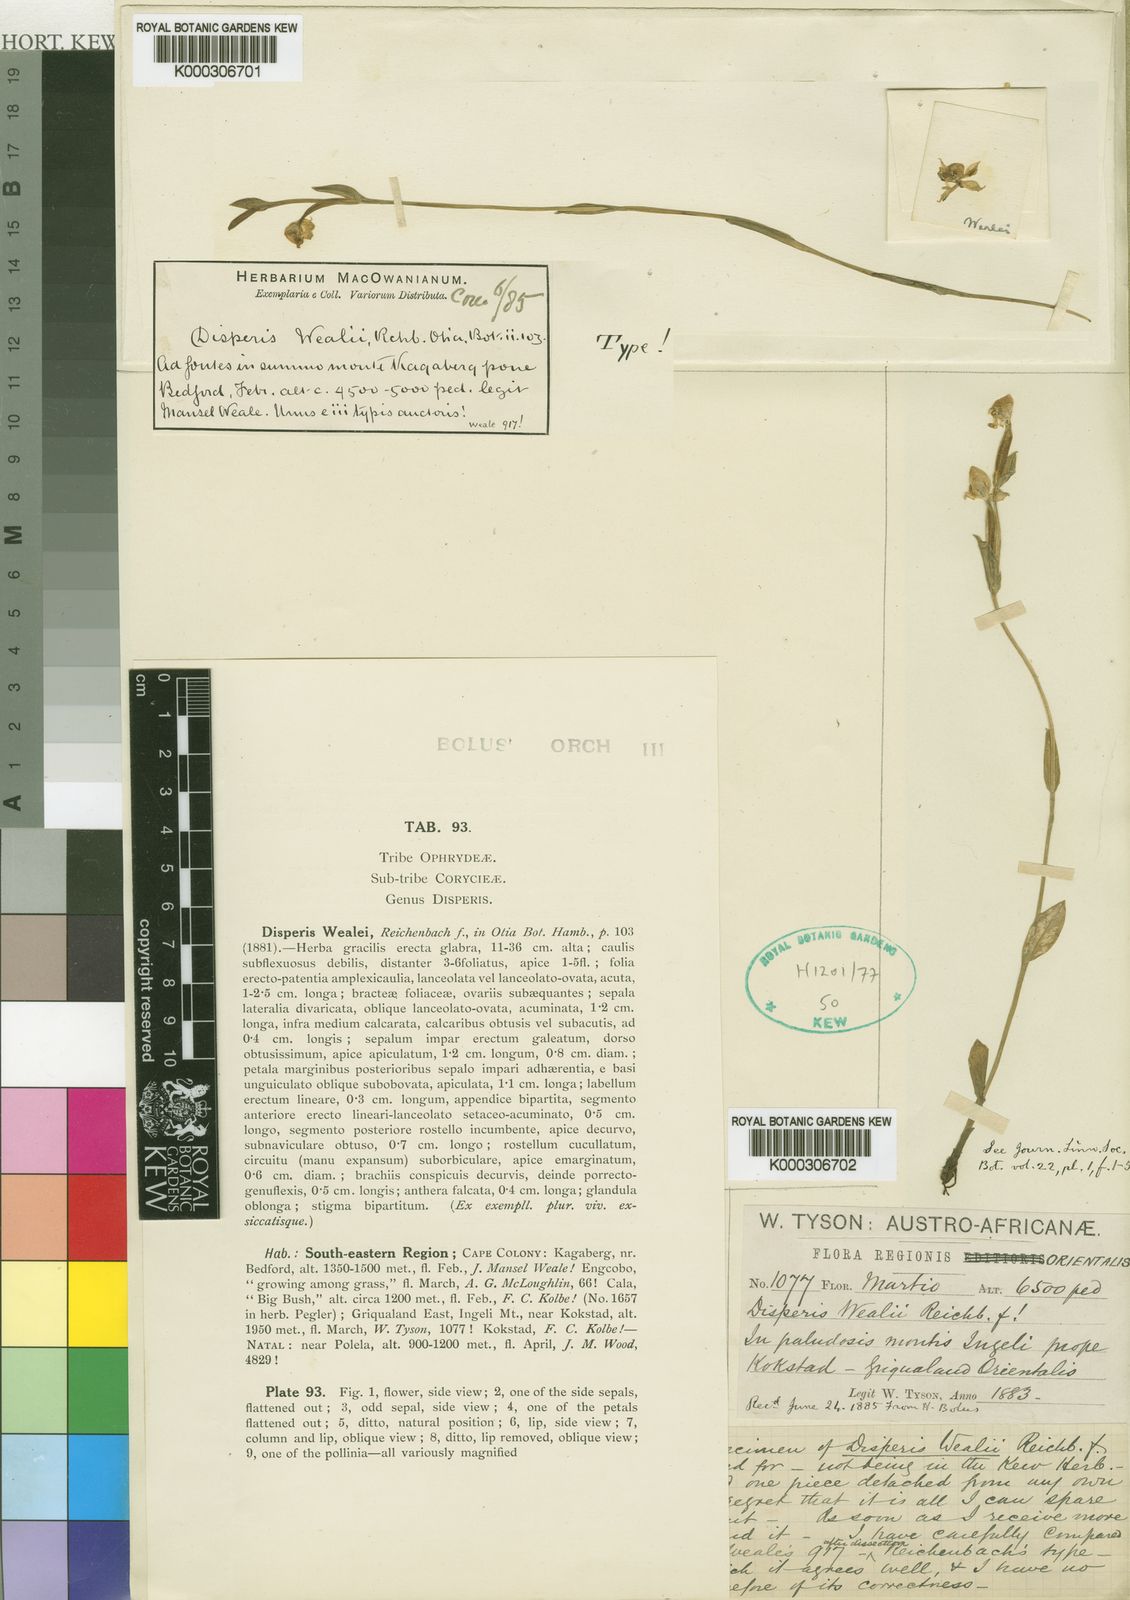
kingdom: Plantae
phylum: Tracheophyta
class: Liliopsida
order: Asparagales
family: Orchidaceae
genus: Disperis
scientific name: Disperis wealei
